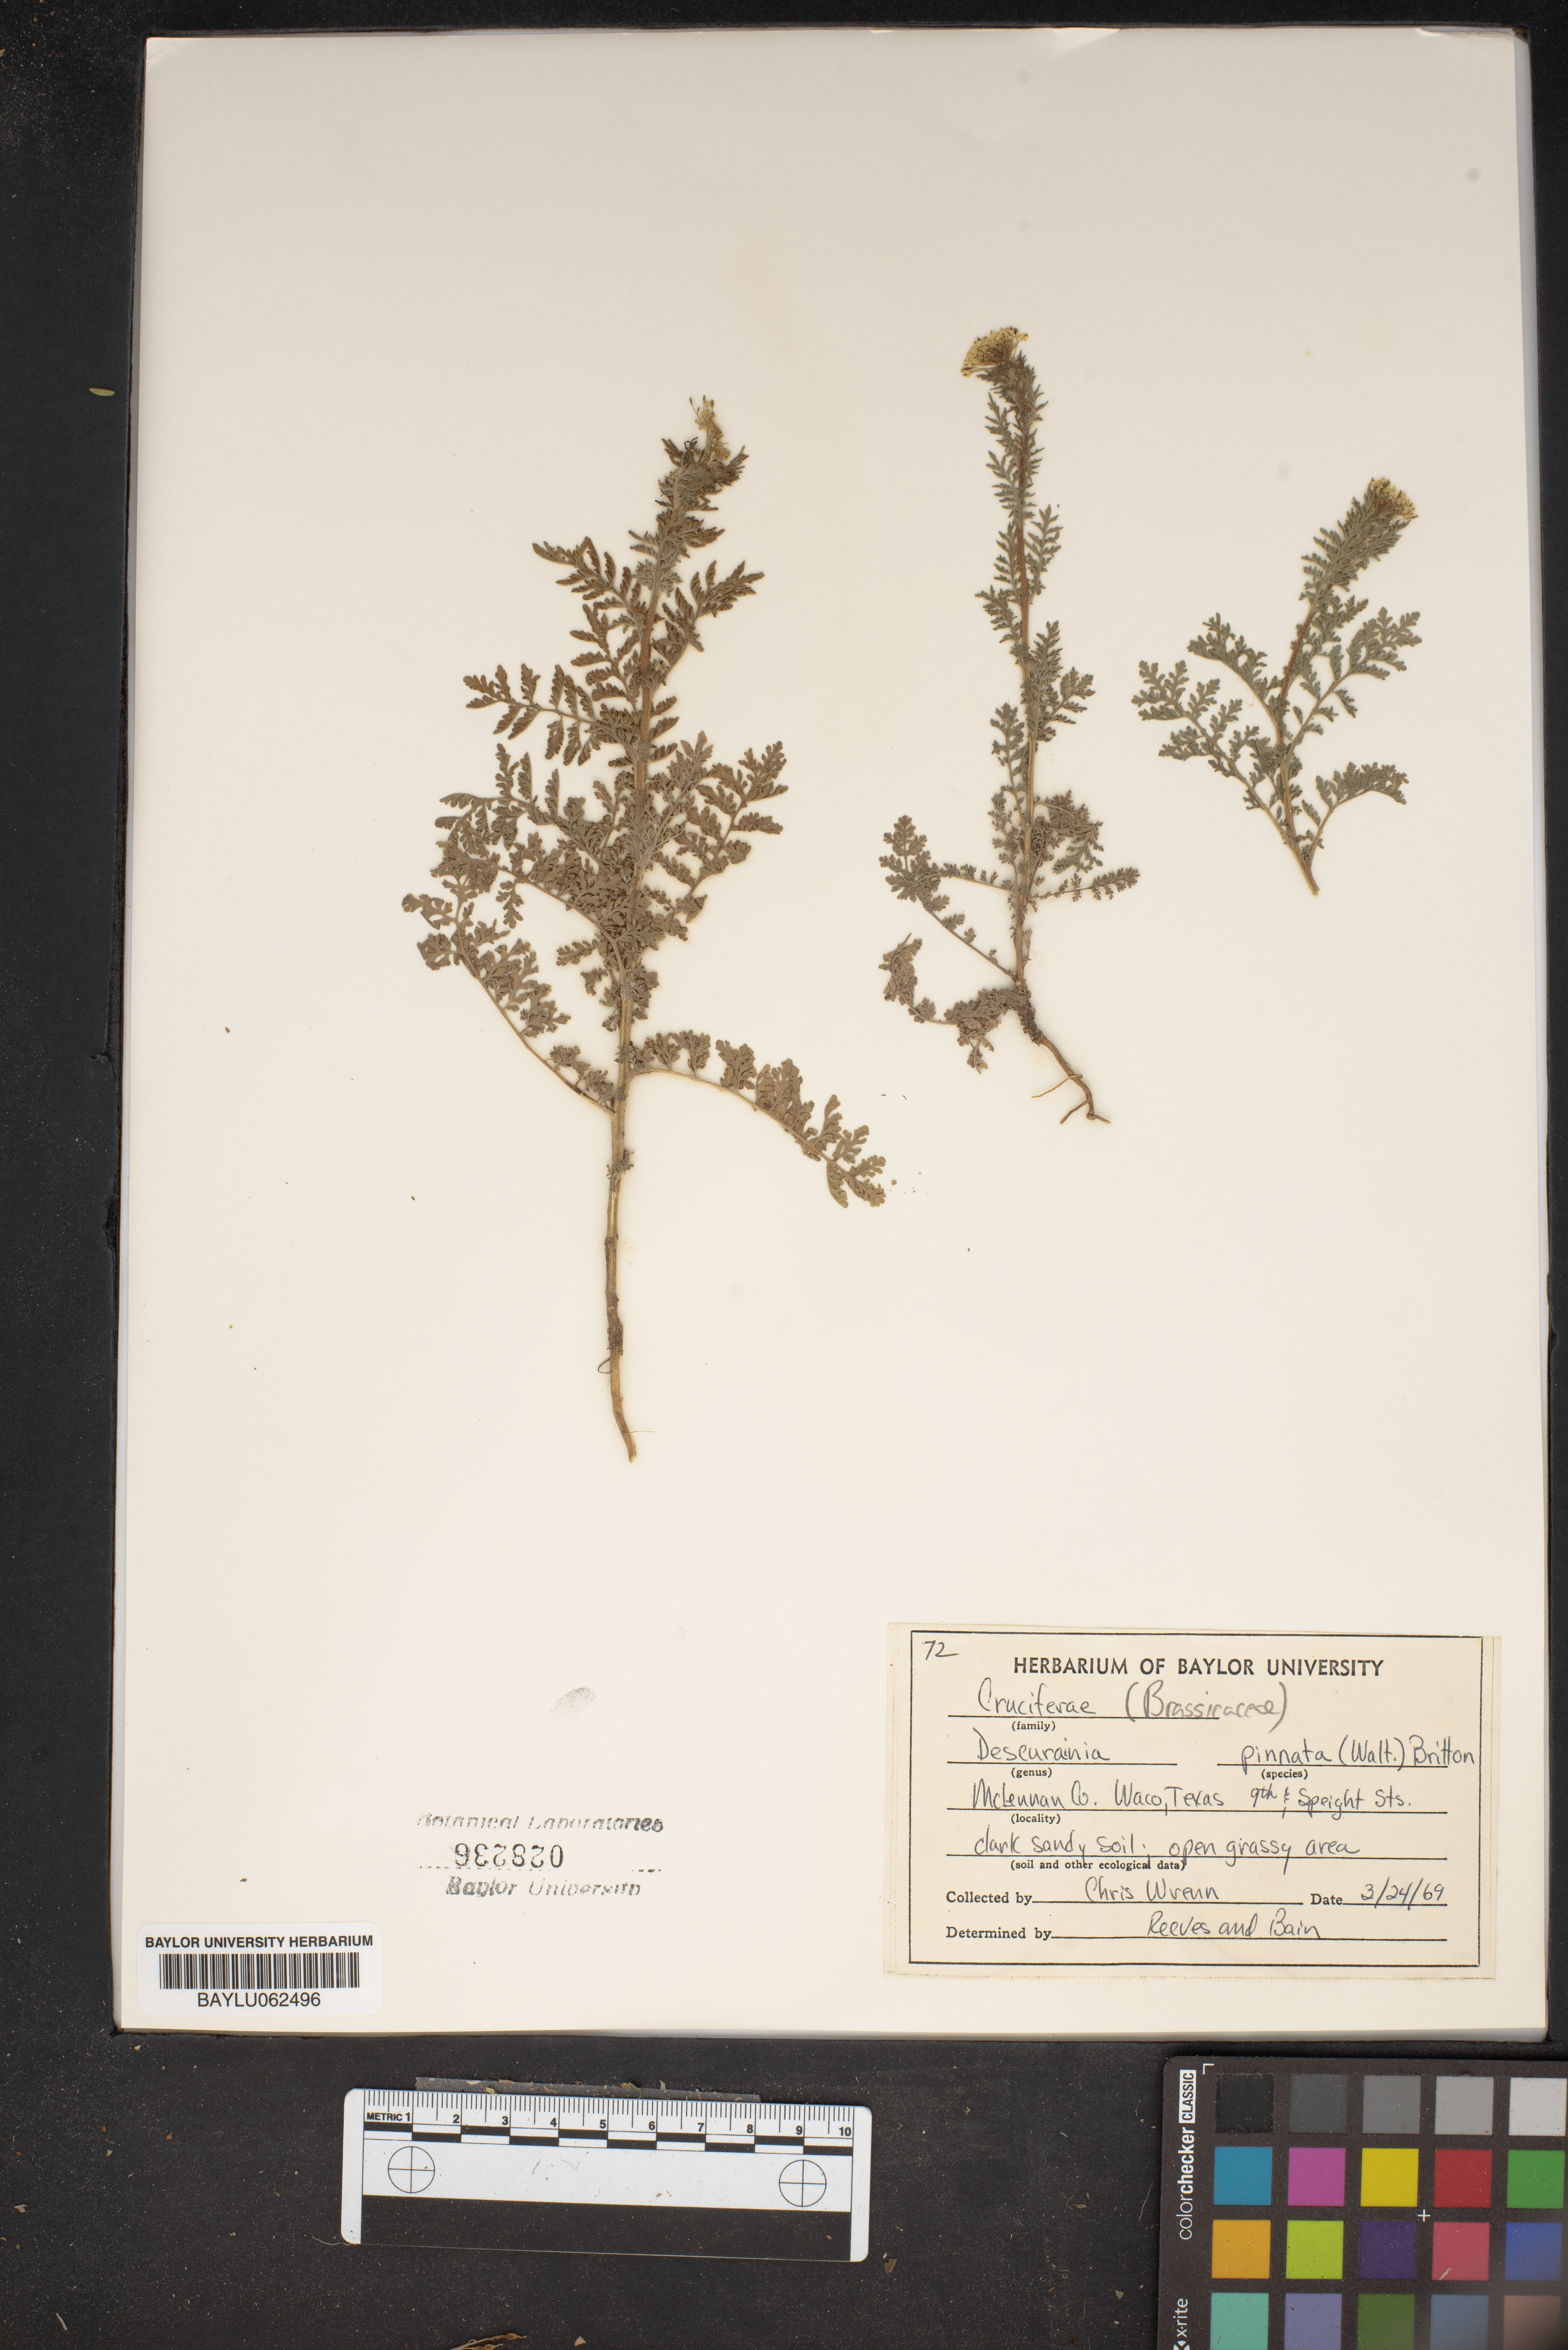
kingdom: Plantae
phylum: Tracheophyta
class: Magnoliopsida
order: Brassicales
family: Brassicaceae
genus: Descurainia
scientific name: Descurainia pinnata
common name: Western tansy mustard
